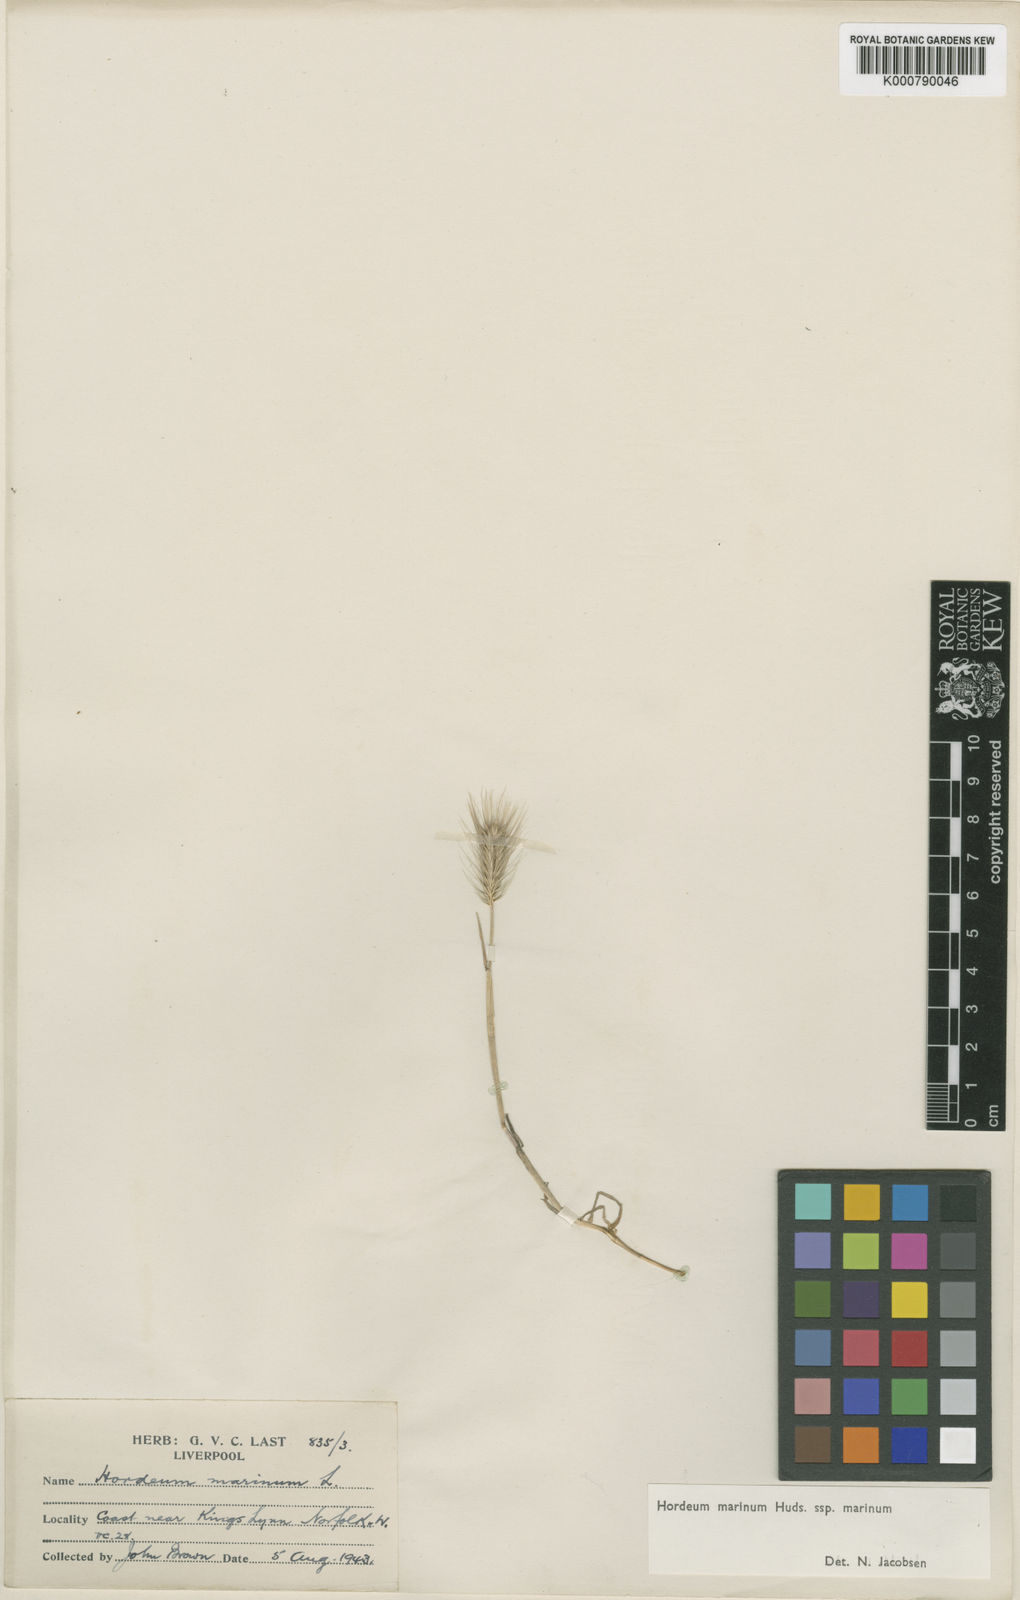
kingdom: Plantae
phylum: Tracheophyta
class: Liliopsida
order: Poales
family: Poaceae
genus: Hordeum
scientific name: Hordeum marinum
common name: Sea barley
